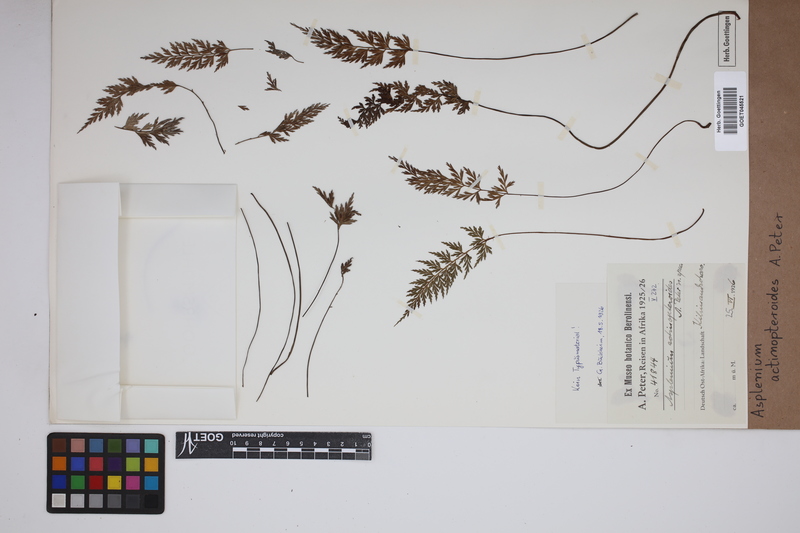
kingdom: Plantae
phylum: Tracheophyta
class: Polypodiopsida
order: Polypodiales
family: Aspleniaceae
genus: Asplenium
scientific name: Asplenium actiniopteroides
